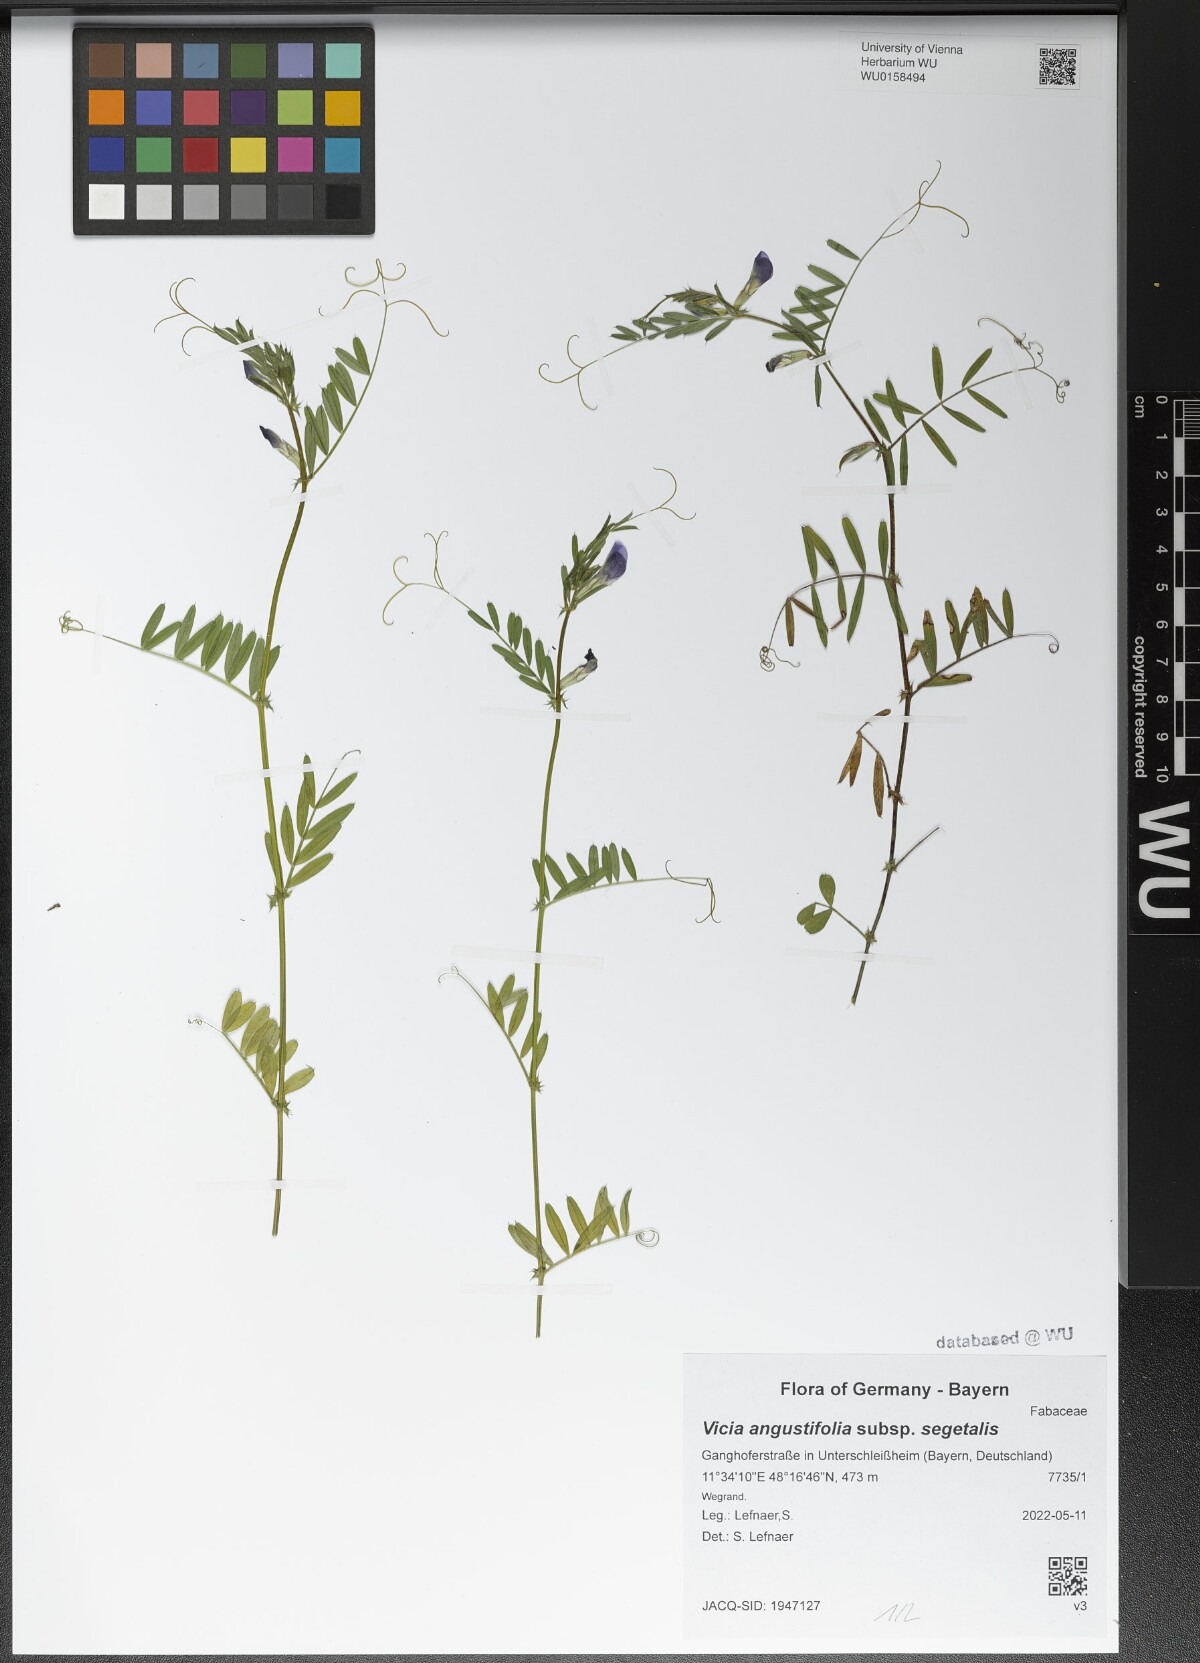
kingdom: Plantae
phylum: Tracheophyta
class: Magnoliopsida
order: Fabales
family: Fabaceae
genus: Vicia
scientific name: Vicia sativa
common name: Garden vetch
